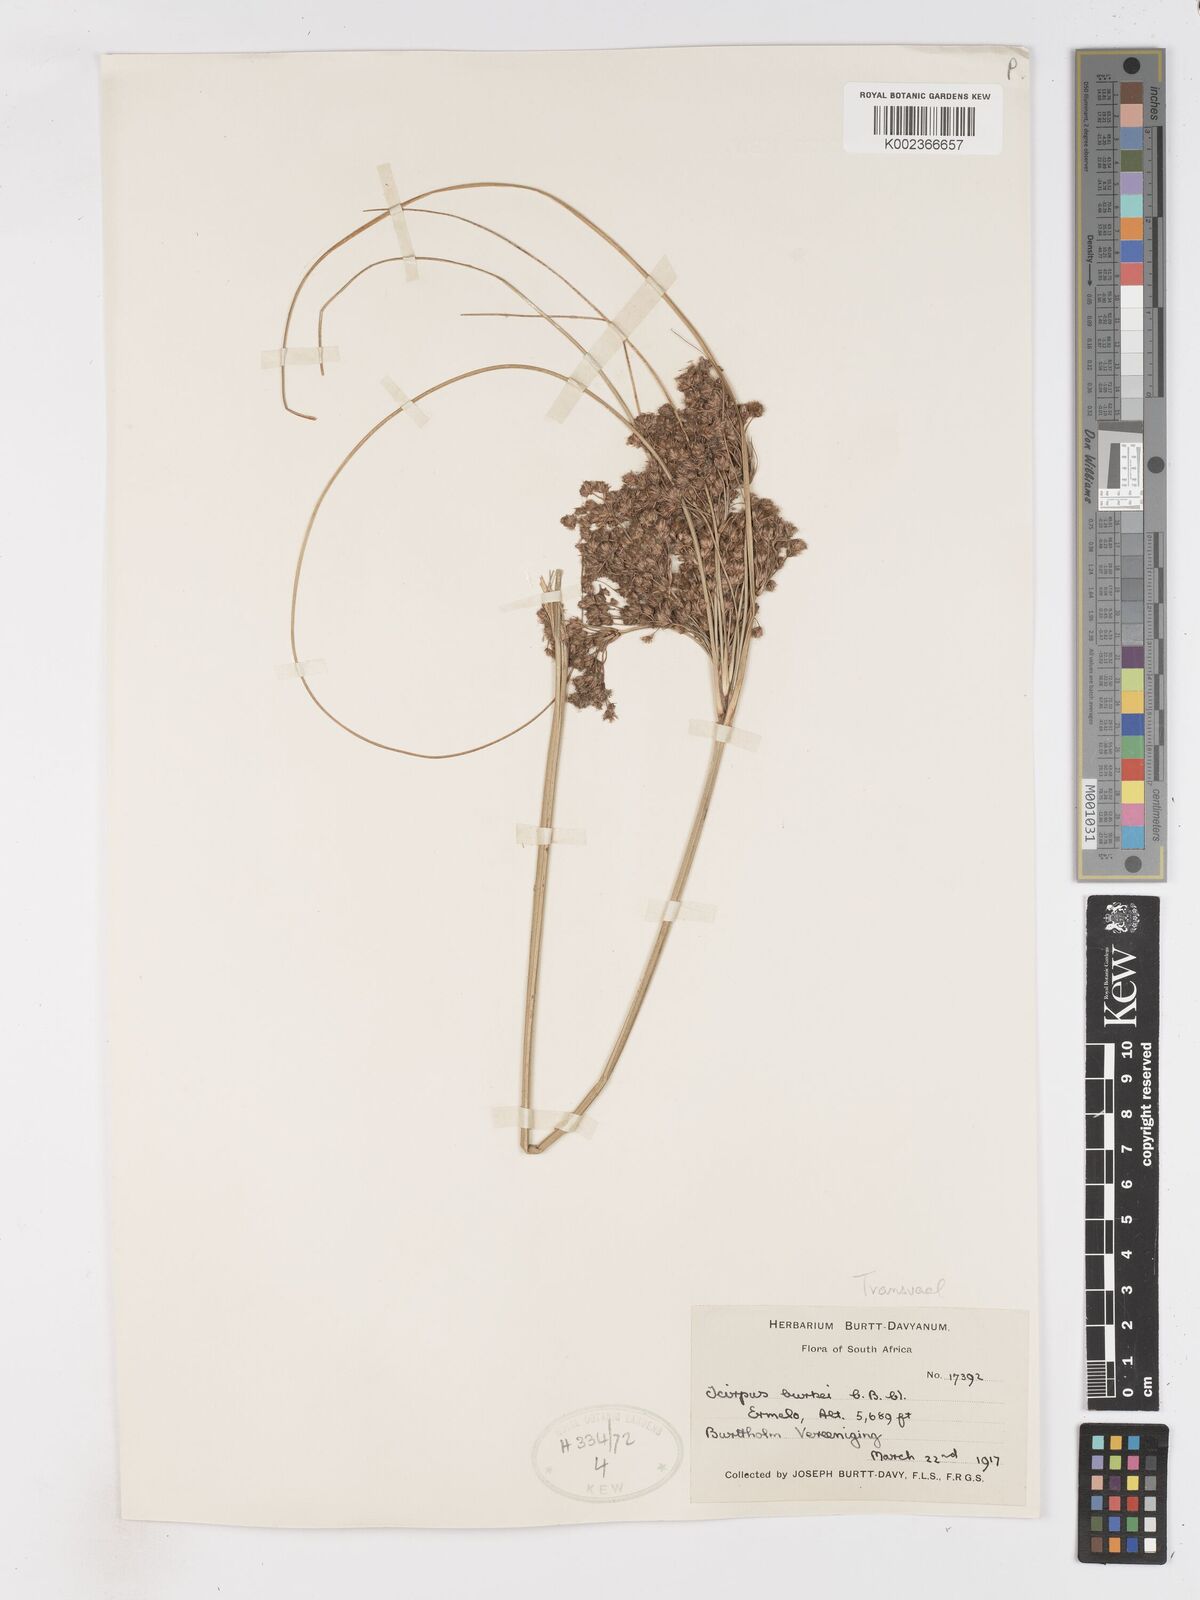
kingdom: Plantae
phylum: Tracheophyta
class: Liliopsida
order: Poales
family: Cyperaceae
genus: Scirpoides
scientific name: Scirpoides burkei
